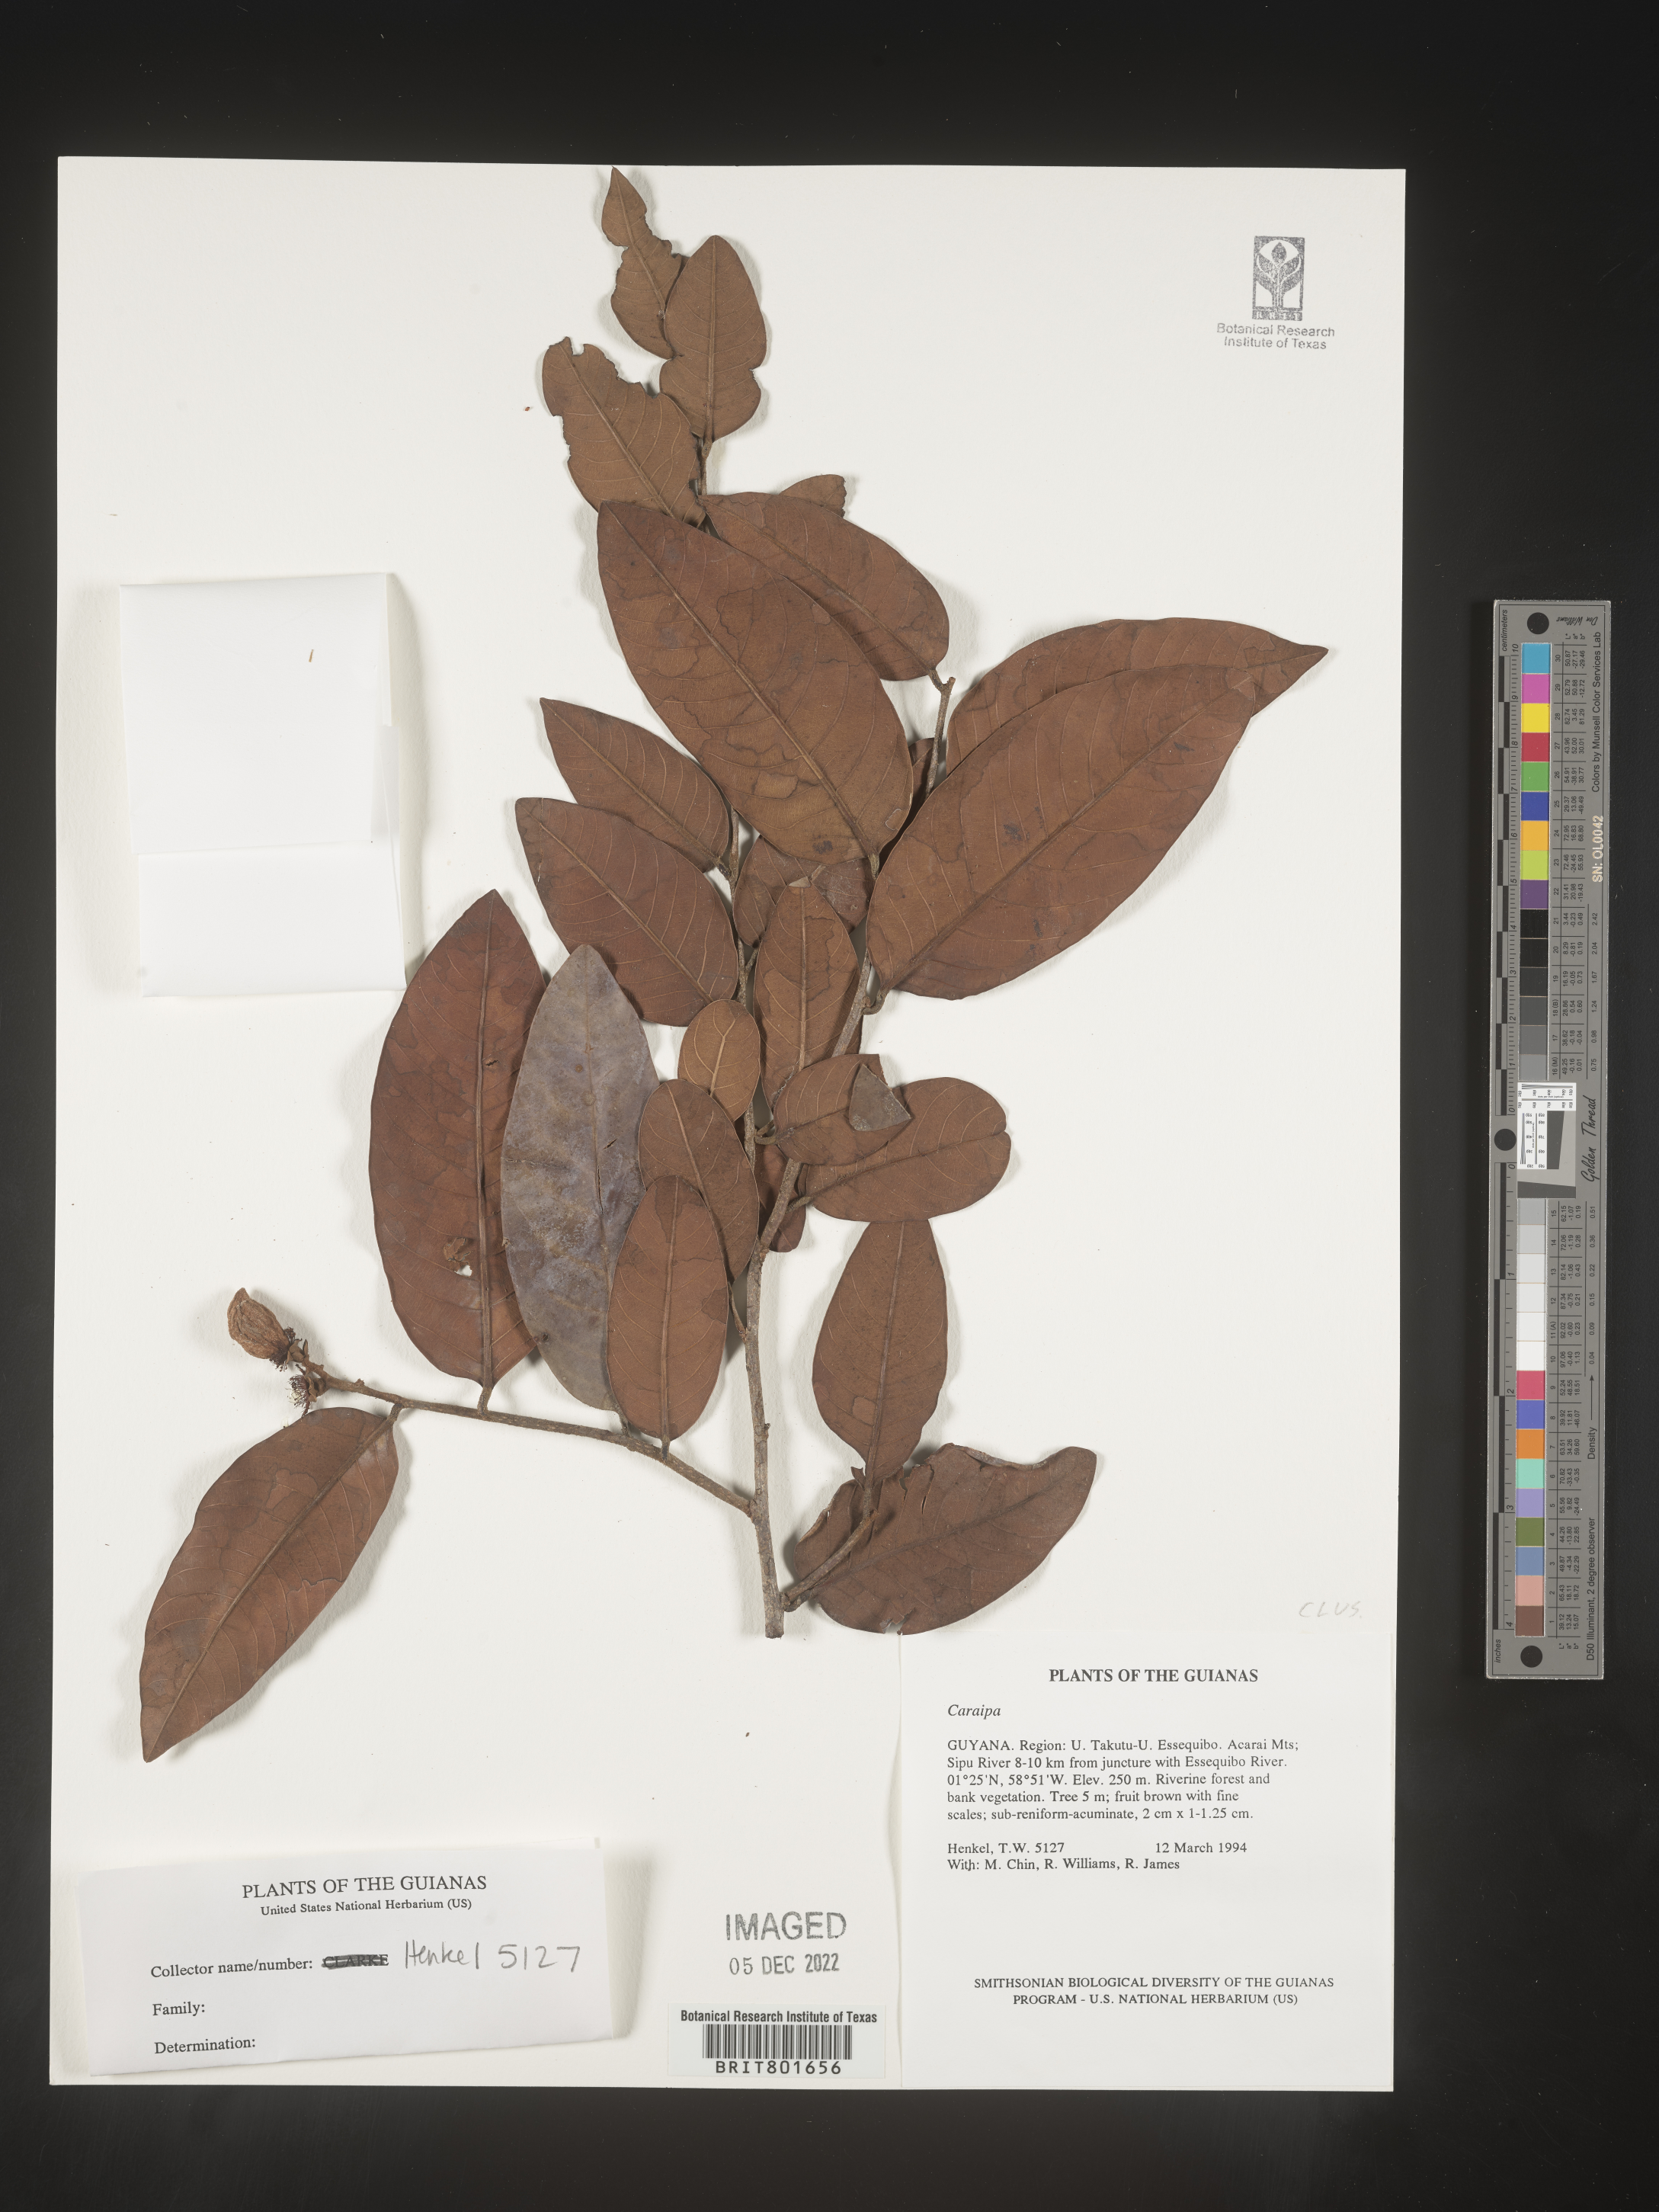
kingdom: Plantae
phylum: Tracheophyta
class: Magnoliopsida
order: Malpighiales
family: Calophyllaceae
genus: Caraipa
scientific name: Caraipa
